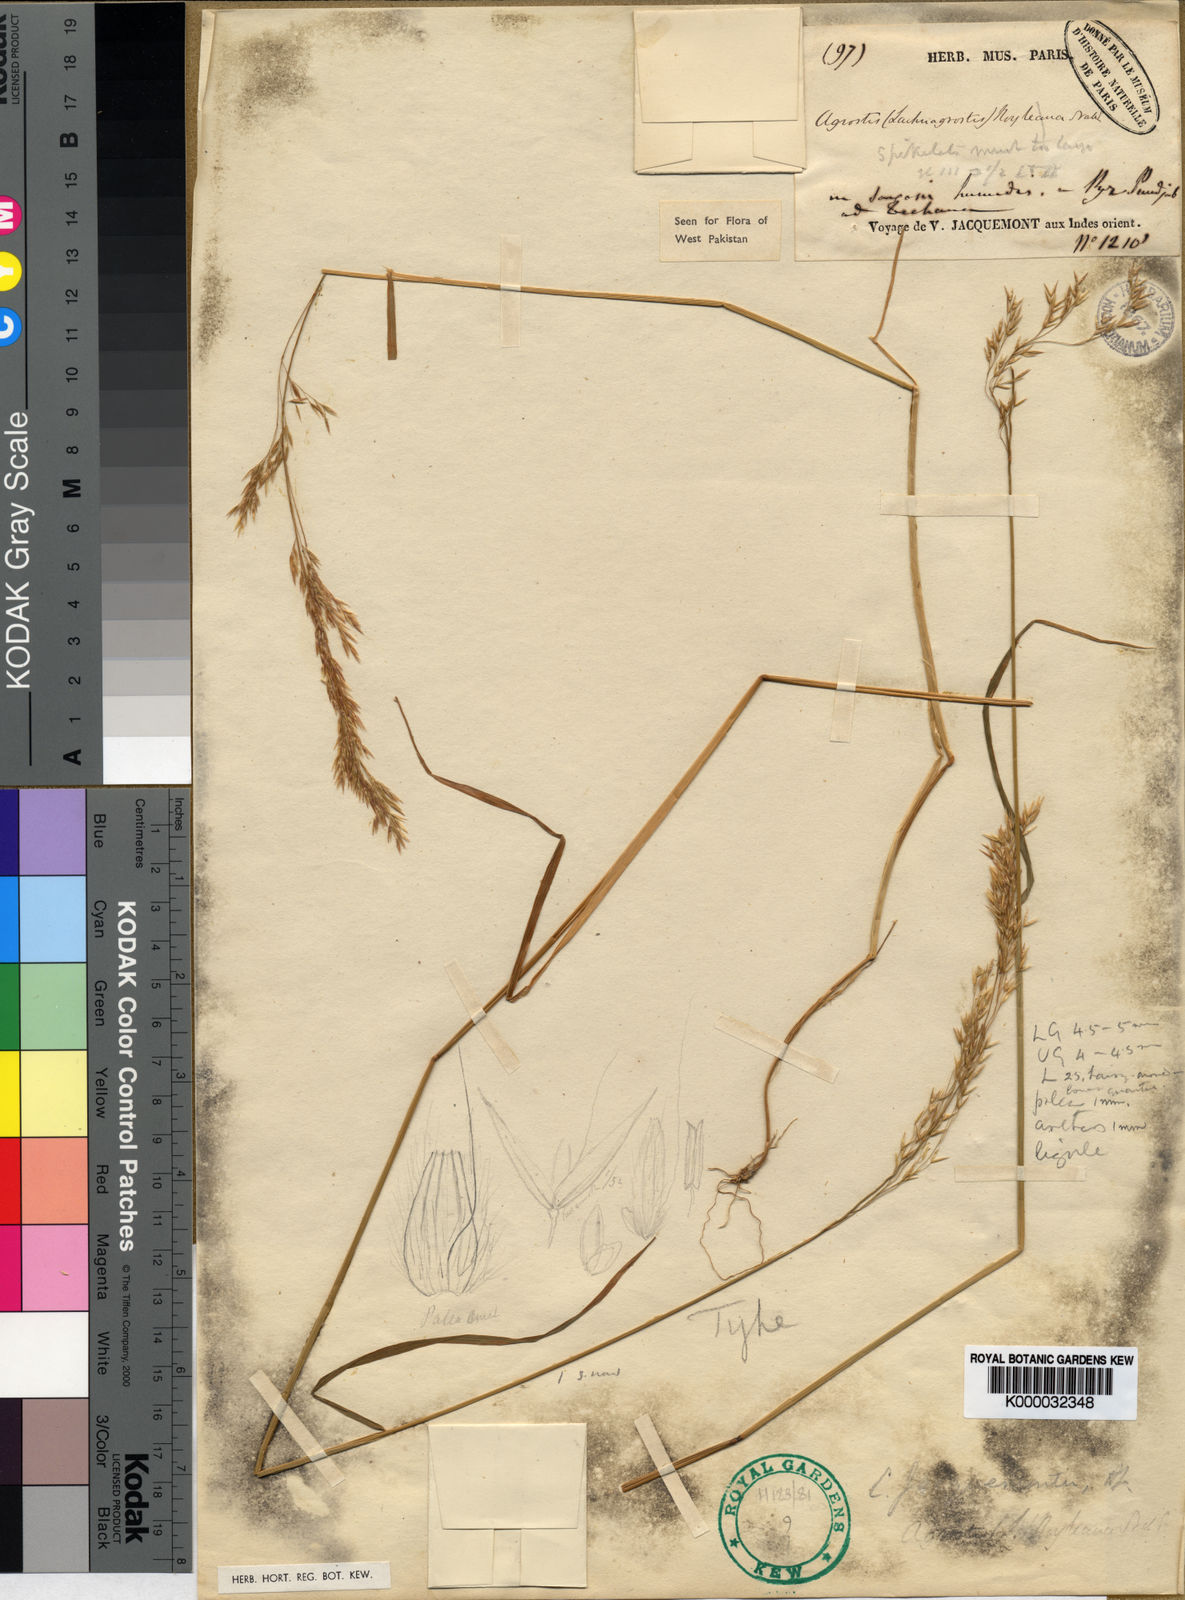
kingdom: Plantae
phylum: Tracheophyta
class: Liliopsida
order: Poales
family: Poaceae
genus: Agrostis
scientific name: Agrostis pilosula
